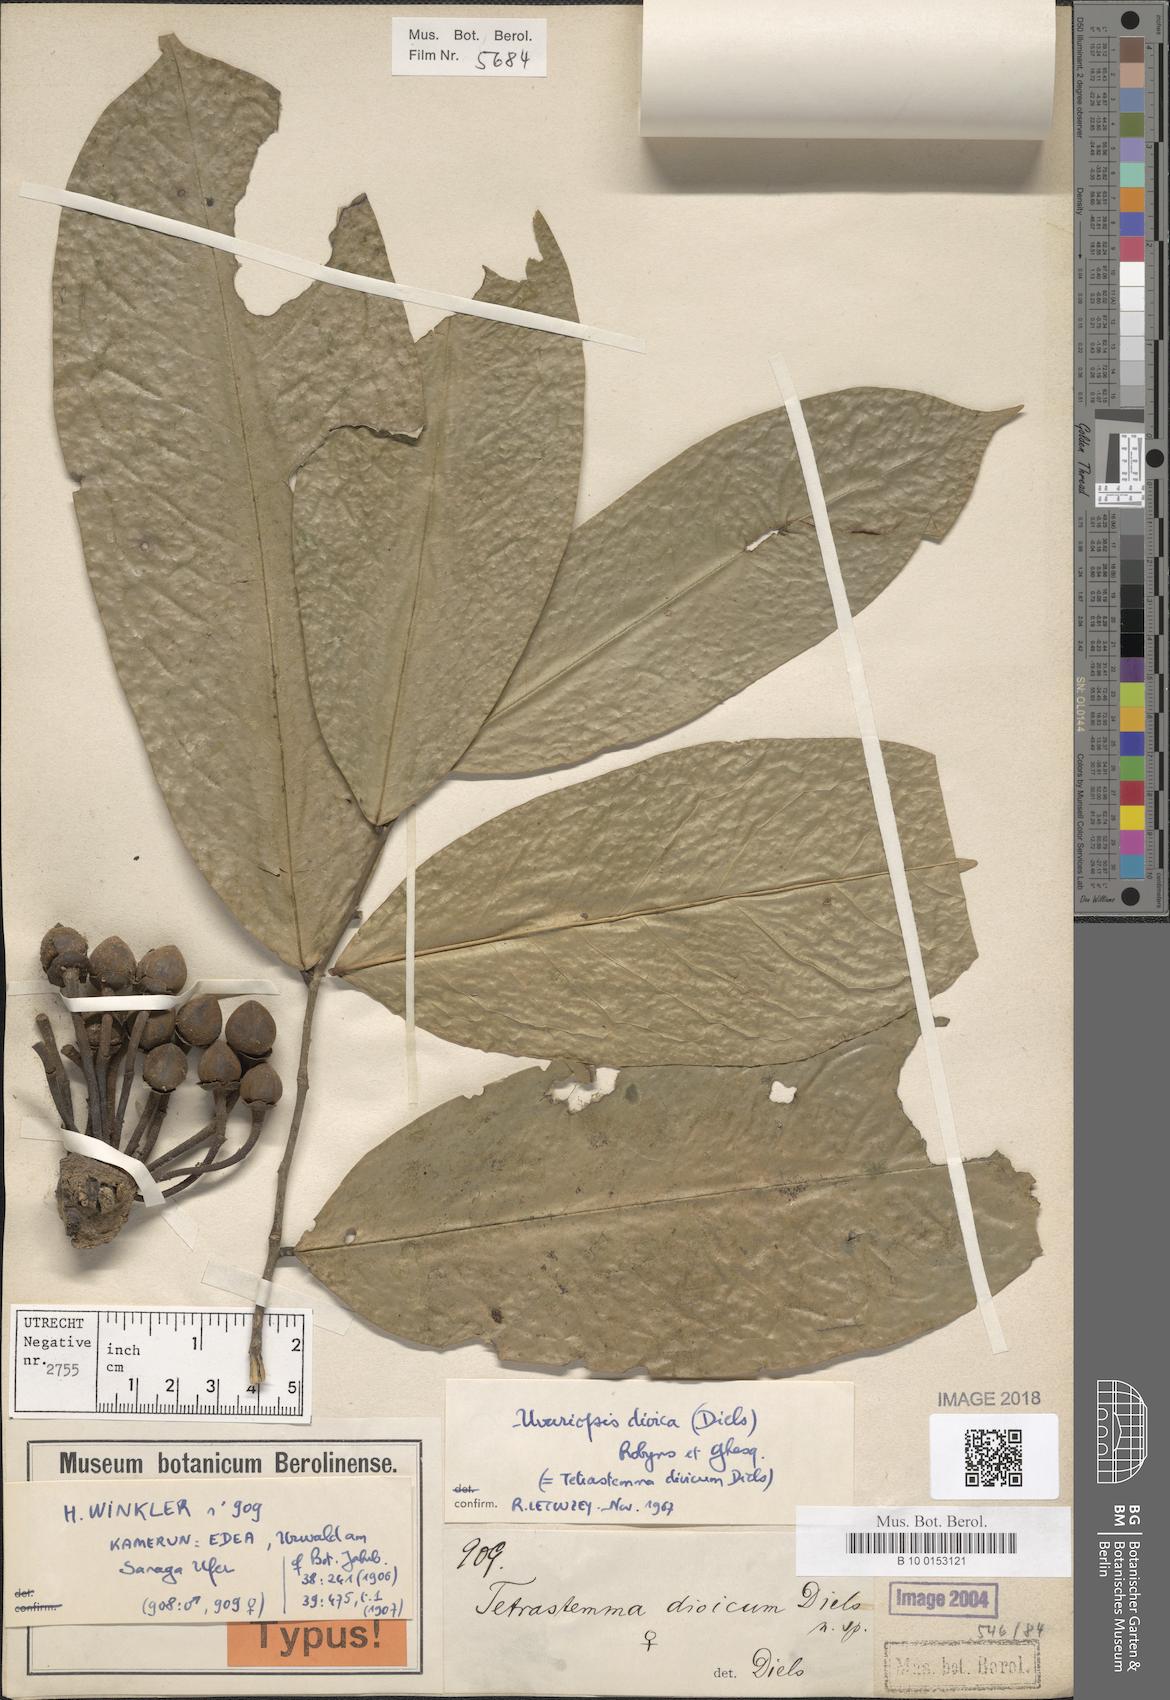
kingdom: Plantae
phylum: Tracheophyta
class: Magnoliopsida
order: Magnoliales
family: Annonaceae
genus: Uvariopsis
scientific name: Uvariopsis dioica
